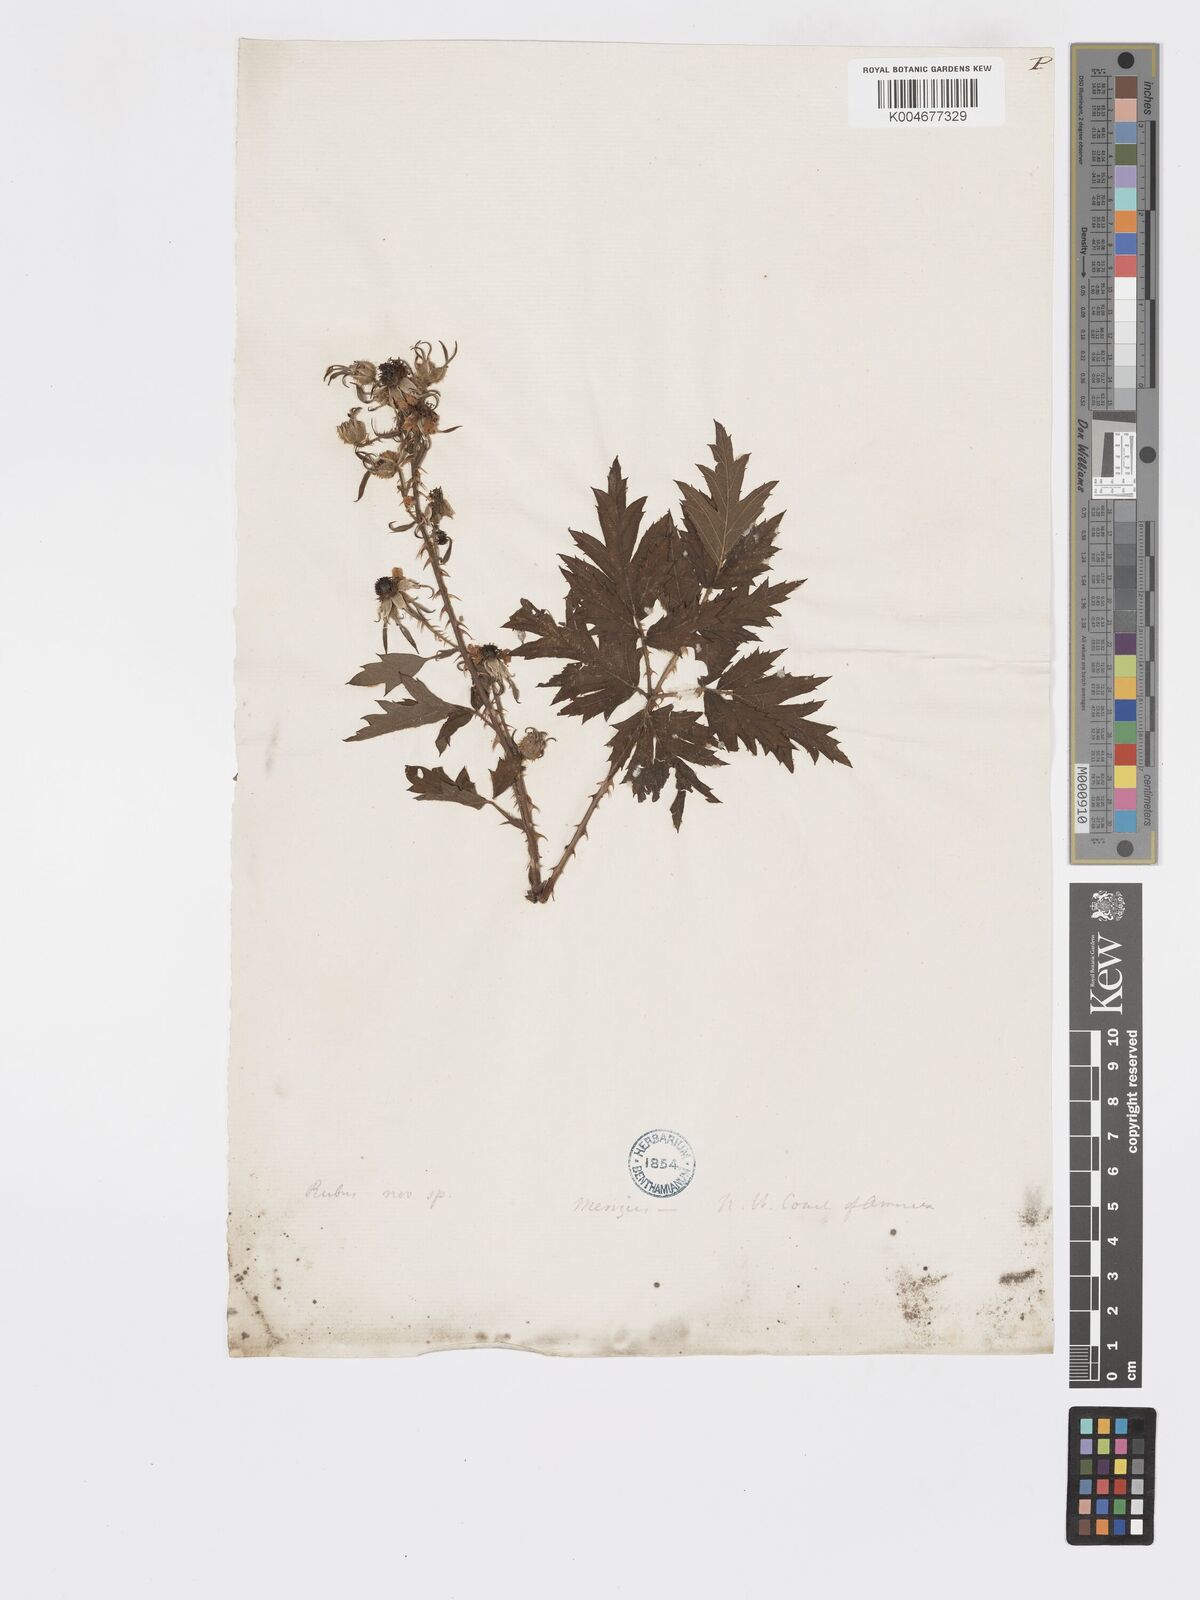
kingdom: Plantae
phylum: Tracheophyta
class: Magnoliopsida
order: Rosales
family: Rosaceae
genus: Rubus
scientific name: Rubus laciniatus
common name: Evergreen blackberry
